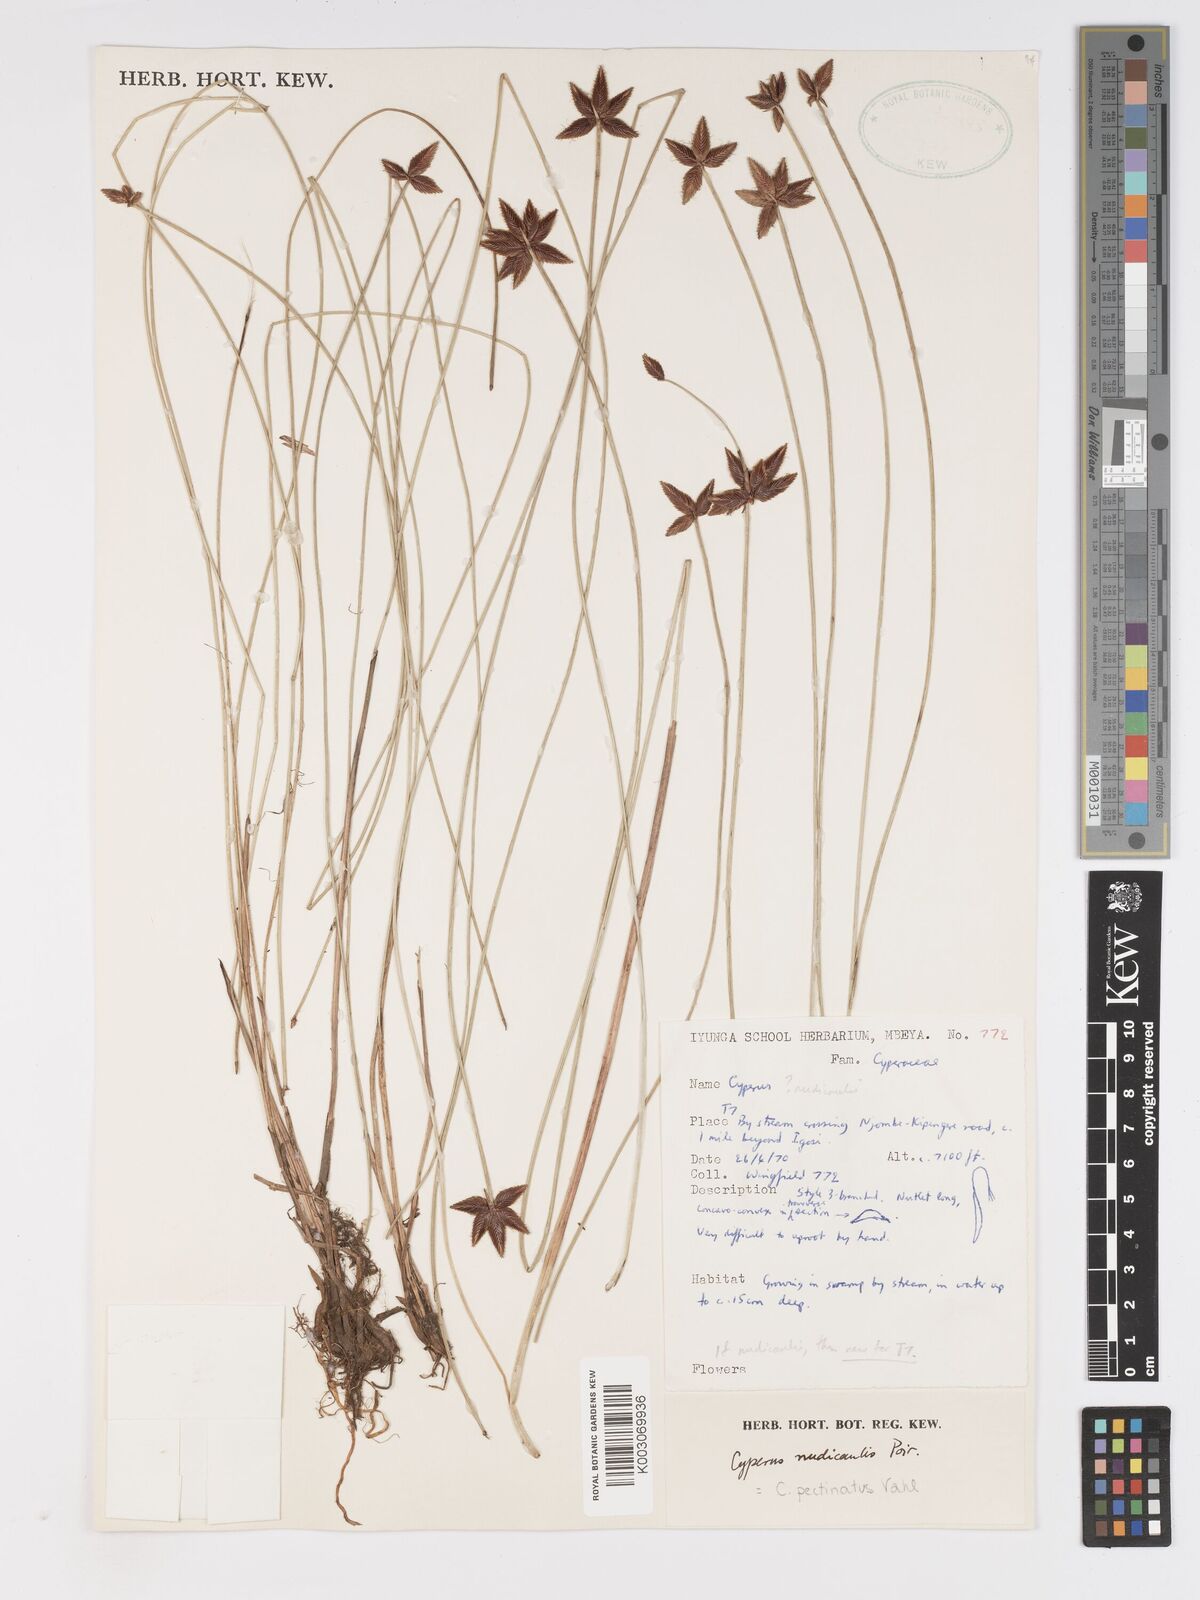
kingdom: Plantae
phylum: Tracheophyta
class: Liliopsida
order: Poales
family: Cyperaceae
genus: Cyperus
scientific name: Cyperus pectinatus
